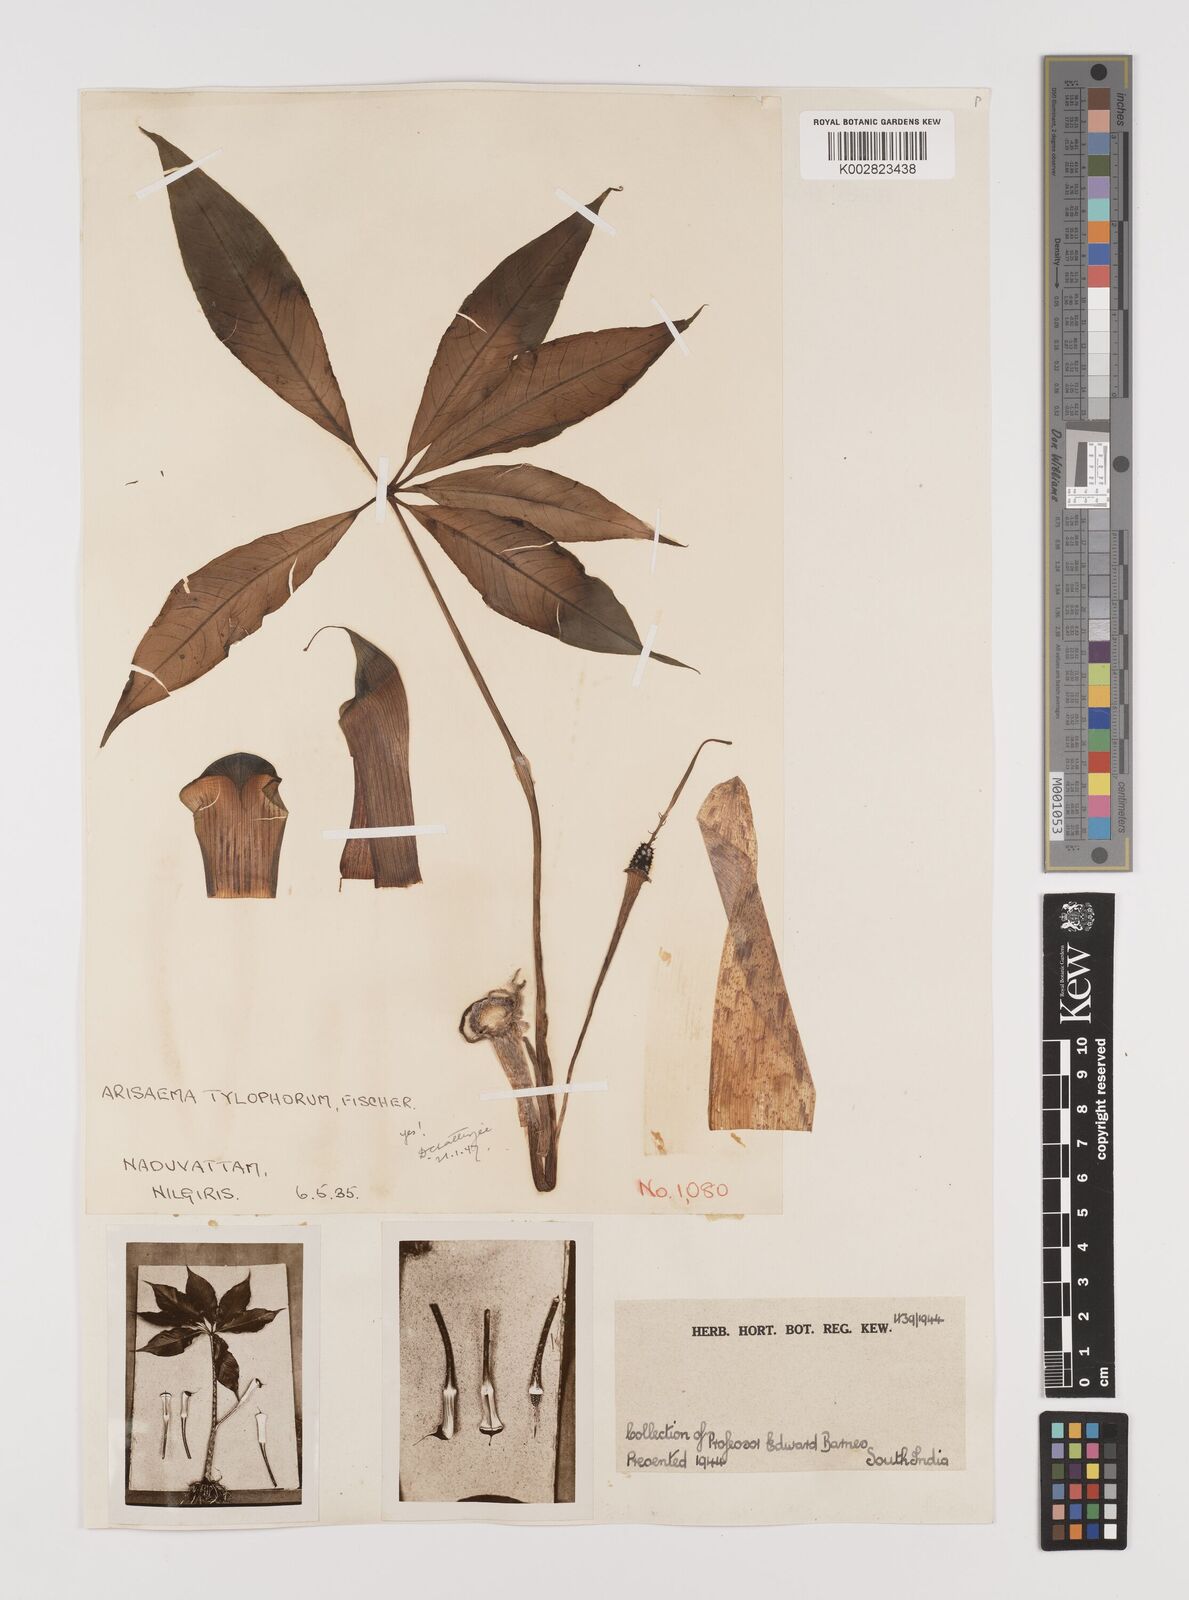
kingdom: Plantae
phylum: Tracheophyta
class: Liliopsida
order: Alismatales
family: Araceae
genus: Arisaema
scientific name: Arisaema barnesii
